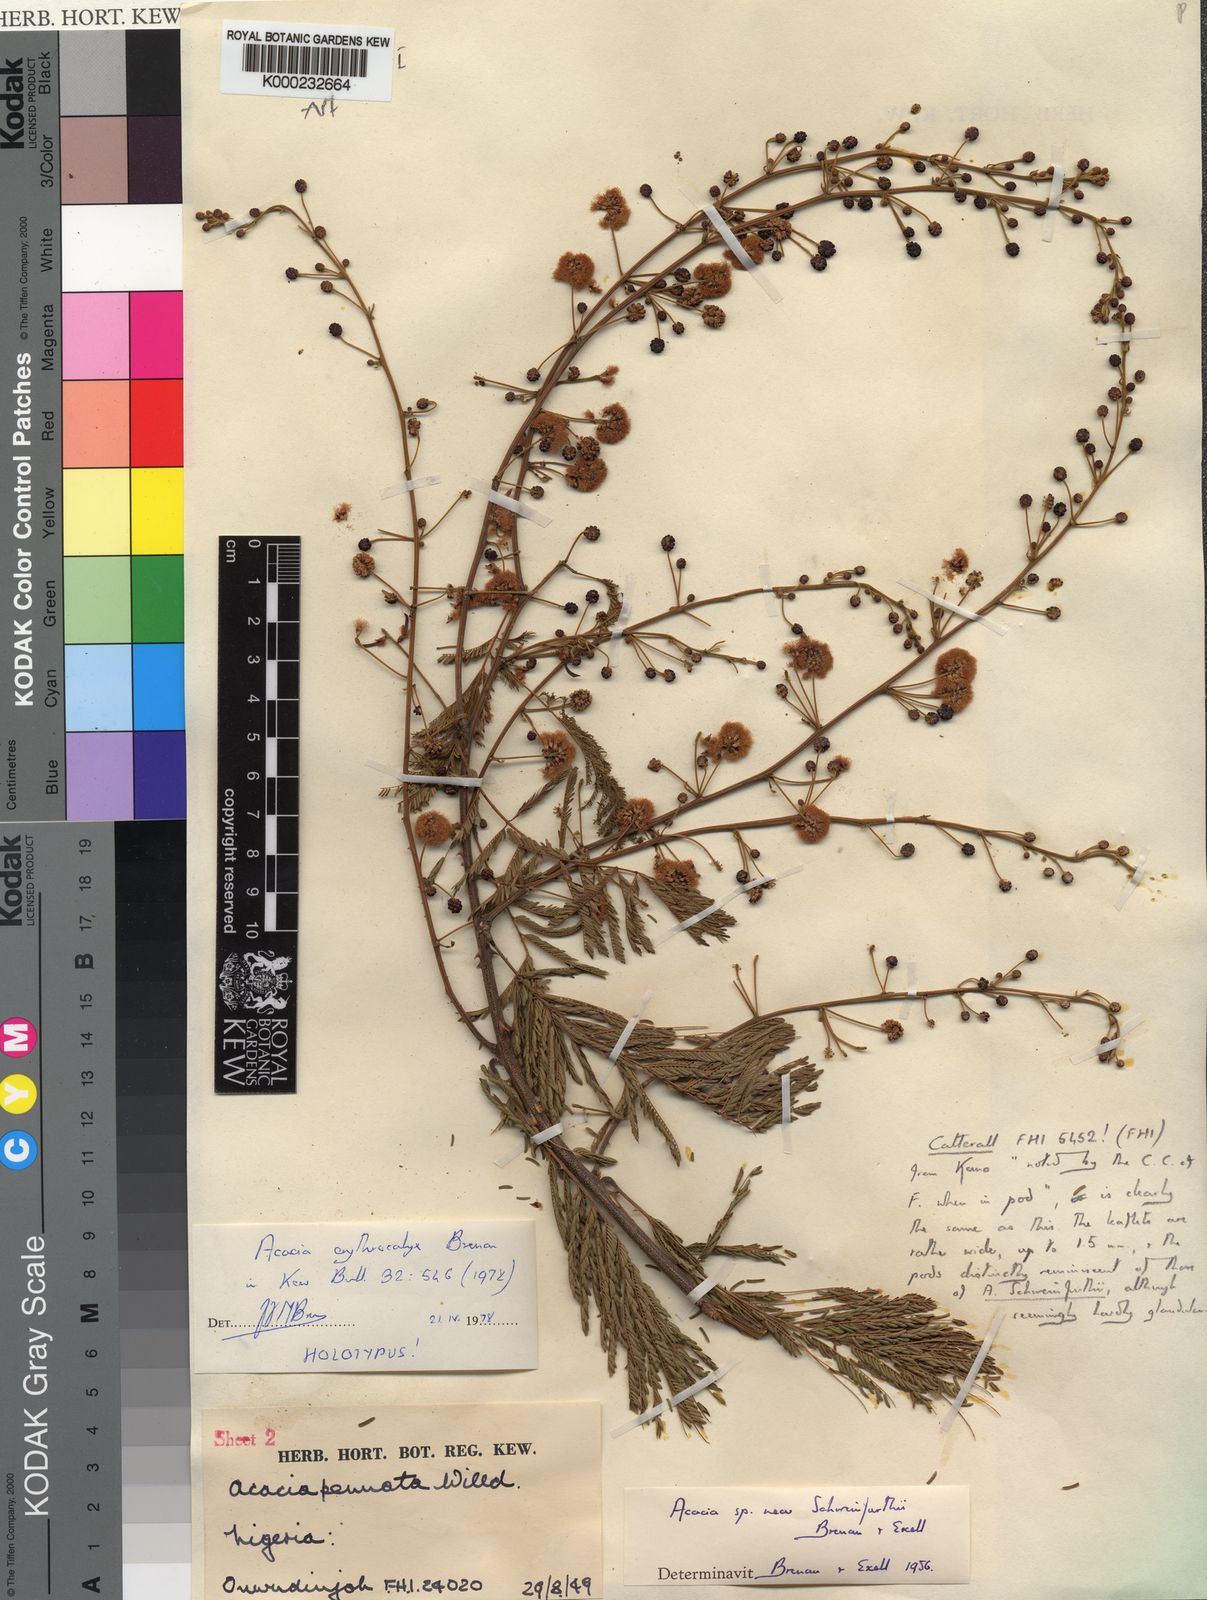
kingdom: Plantae
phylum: Tracheophyta
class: Magnoliopsida
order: Fabales
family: Fabaceae
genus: Acacia
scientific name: Acacia
